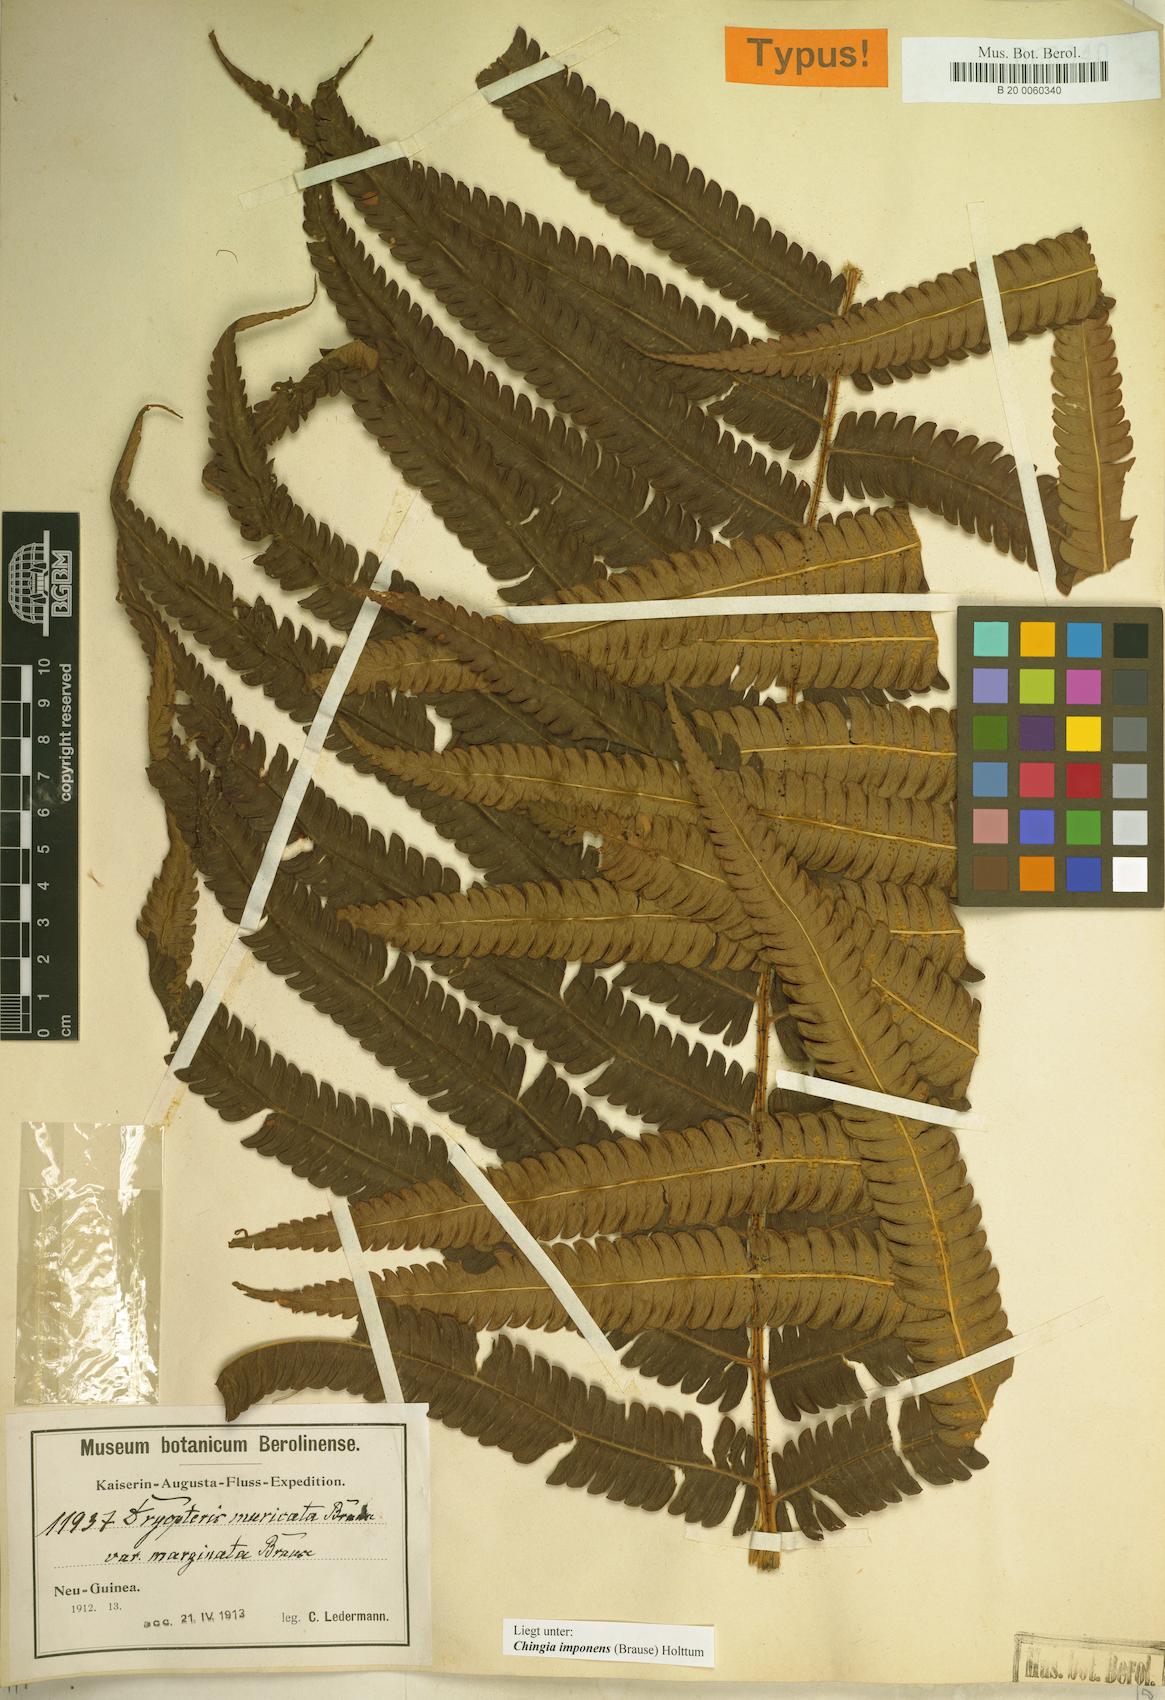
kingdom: Plantae
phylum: Tracheophyta
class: Polypodiopsida
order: Polypodiales
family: Thelypteridaceae
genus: Chingia
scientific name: Chingia imponens
